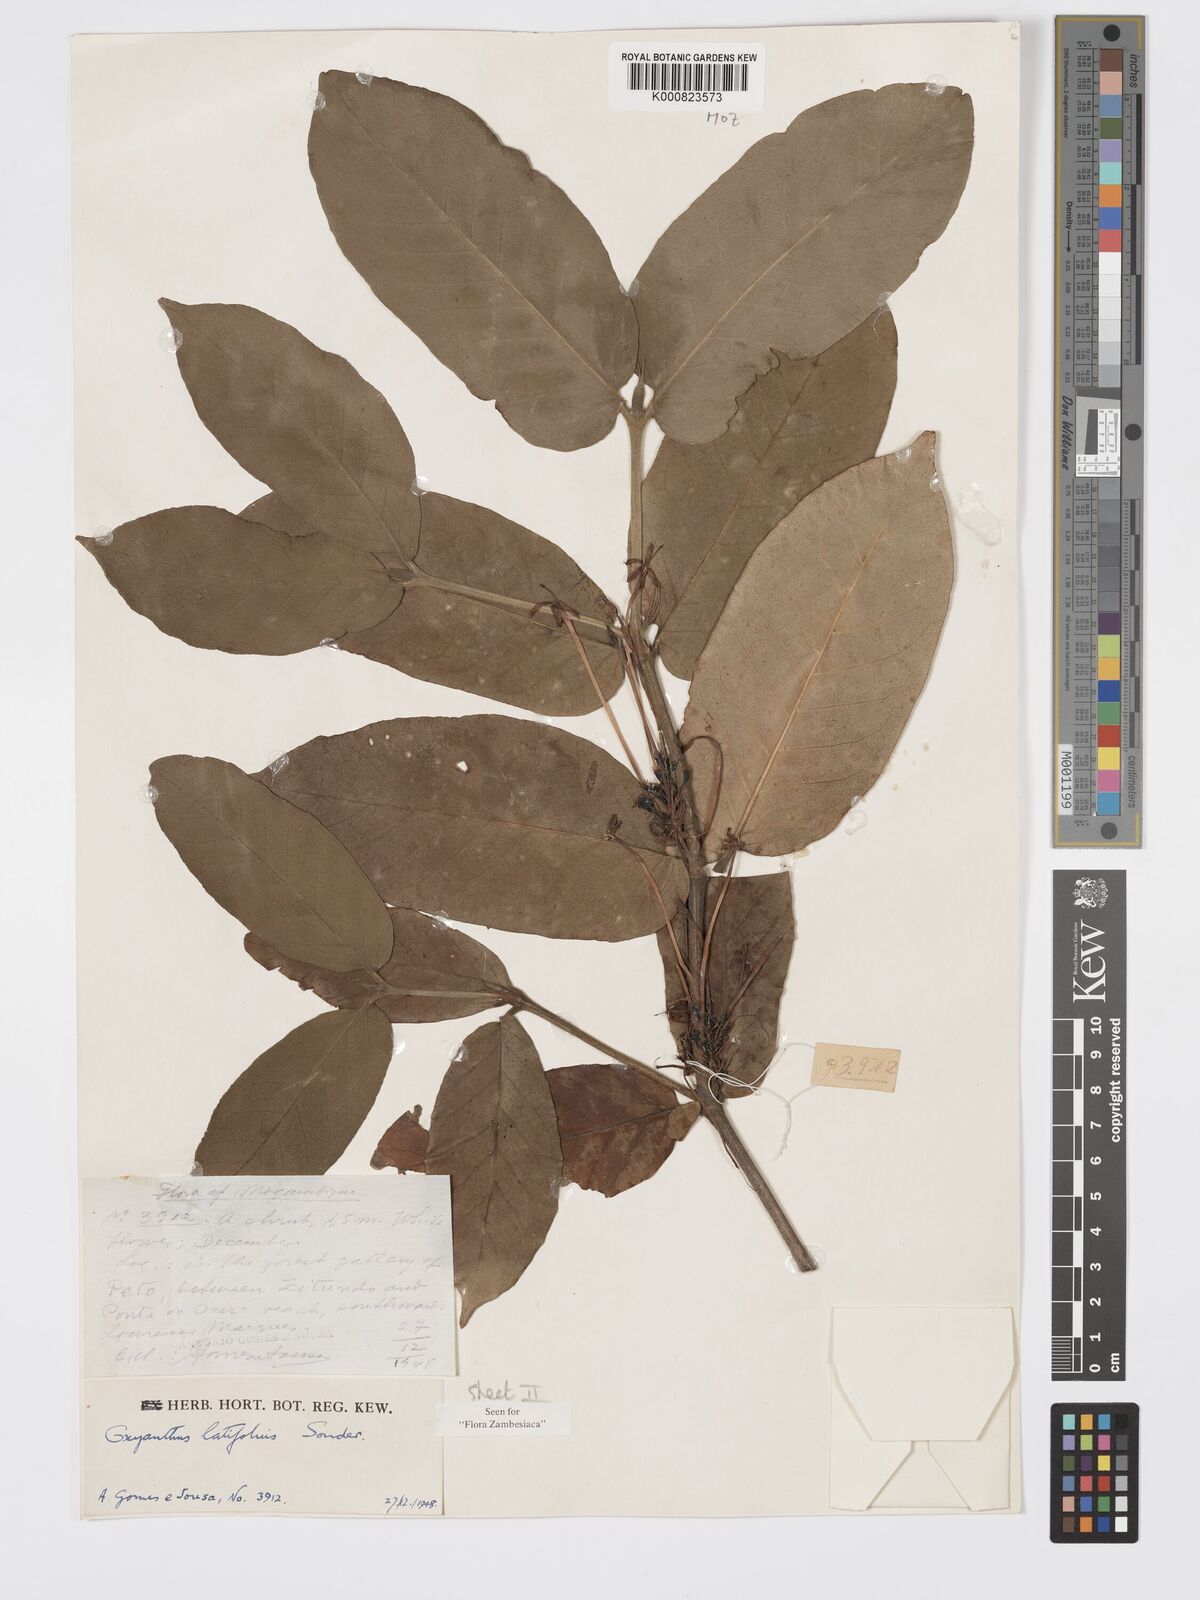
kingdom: Plantae
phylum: Tracheophyta
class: Magnoliopsida
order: Gentianales
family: Rubiaceae
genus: Oxyanthus
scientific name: Oxyanthus latifolius
